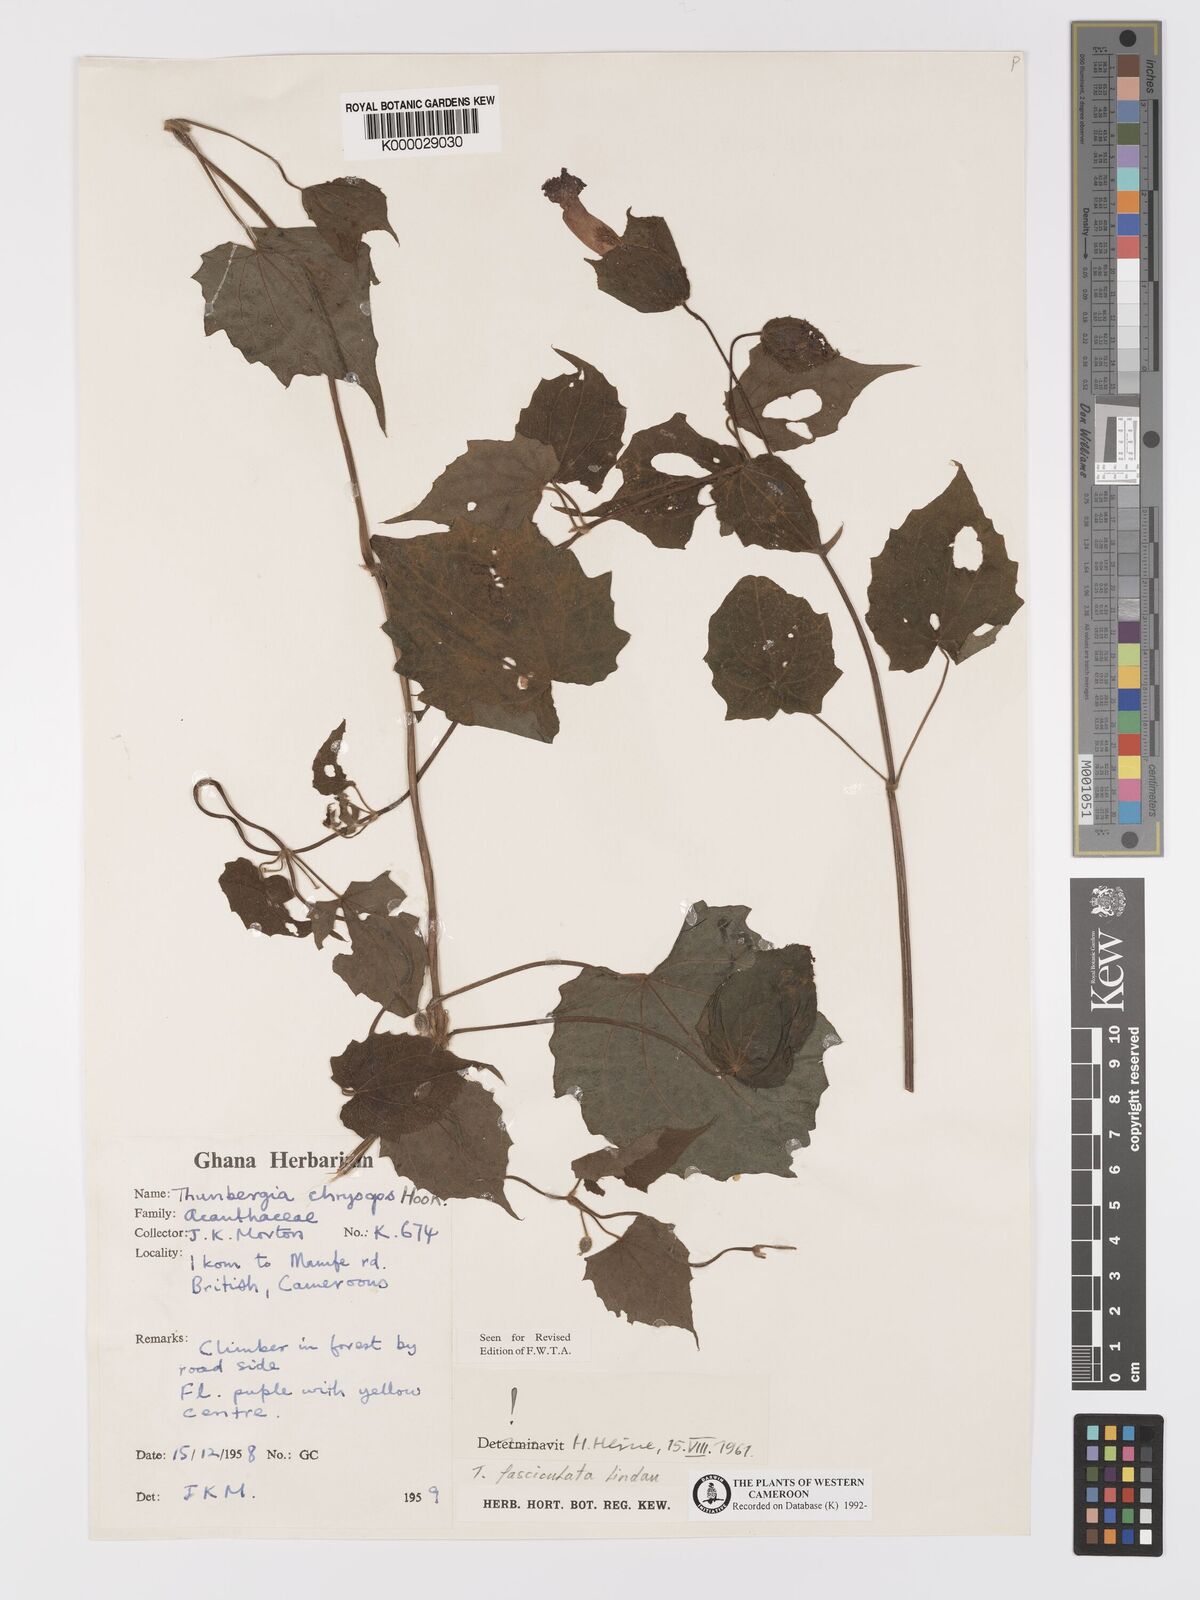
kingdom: Plantae
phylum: Tracheophyta
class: Magnoliopsida
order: Lamiales
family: Acanthaceae
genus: Thunbergia
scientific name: Thunbergia fasciculata
